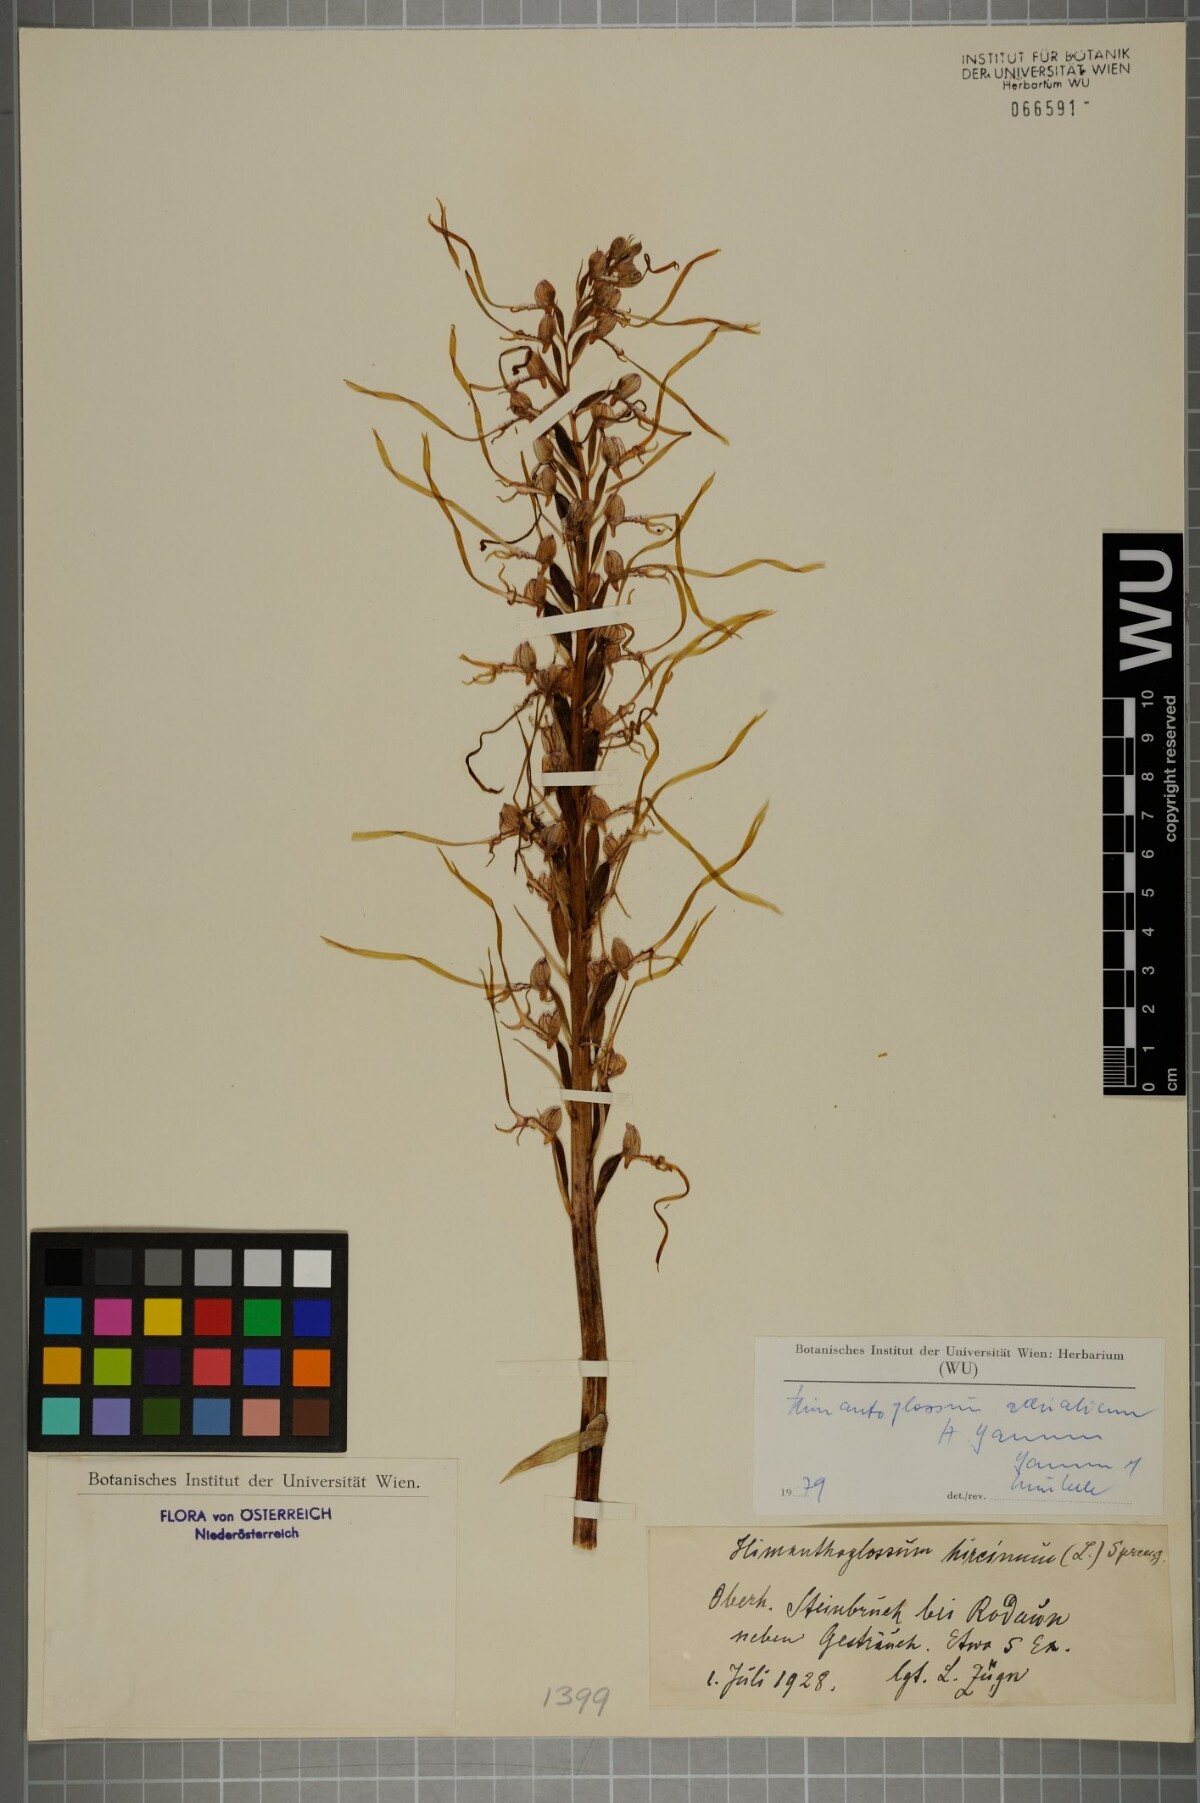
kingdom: Plantae
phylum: Tracheophyta
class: Liliopsida
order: Asparagales
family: Orchidaceae
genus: Himantoglossum
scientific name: Himantoglossum adriaticum
